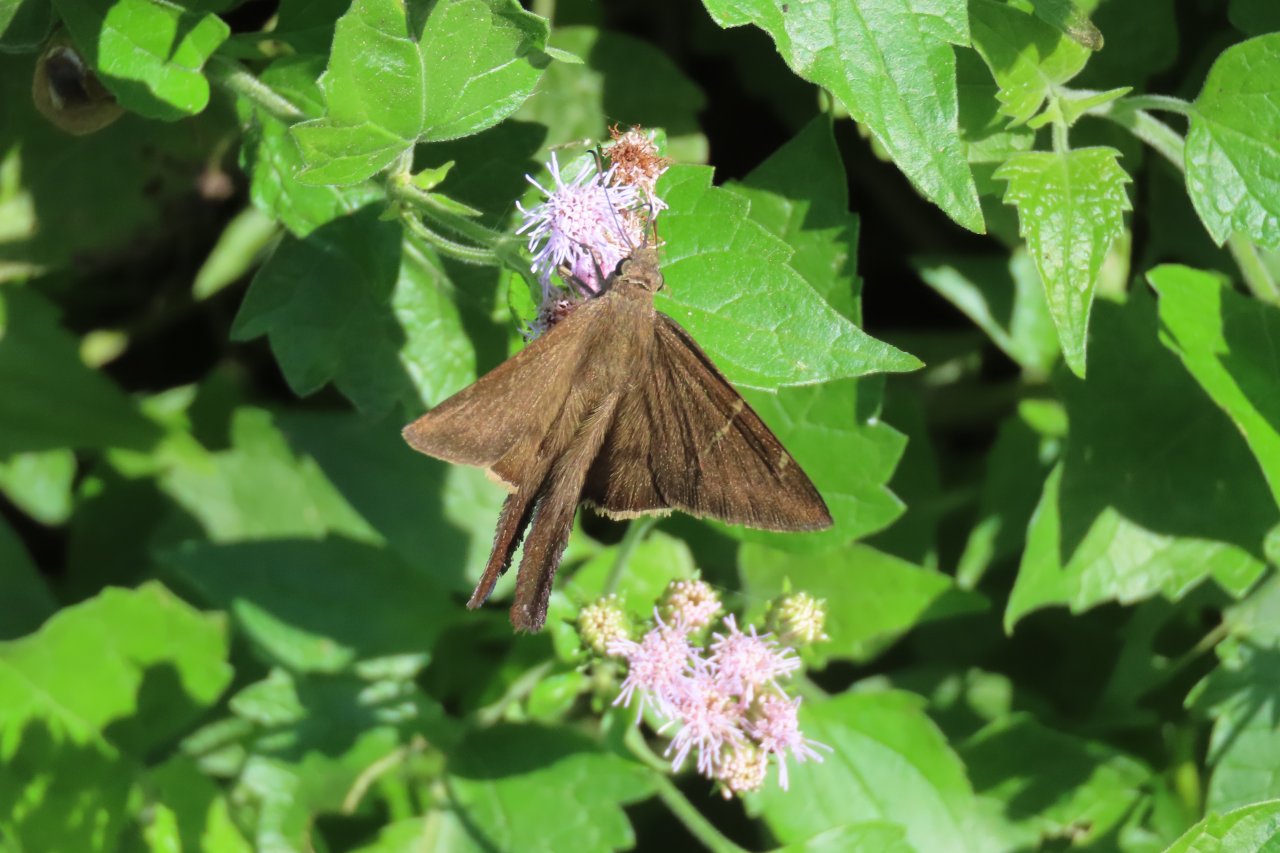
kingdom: Animalia
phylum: Arthropoda
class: Insecta
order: Lepidoptera
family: Hesperiidae
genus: Urbanus
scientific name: Urbanus procne
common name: Brown Longtail
